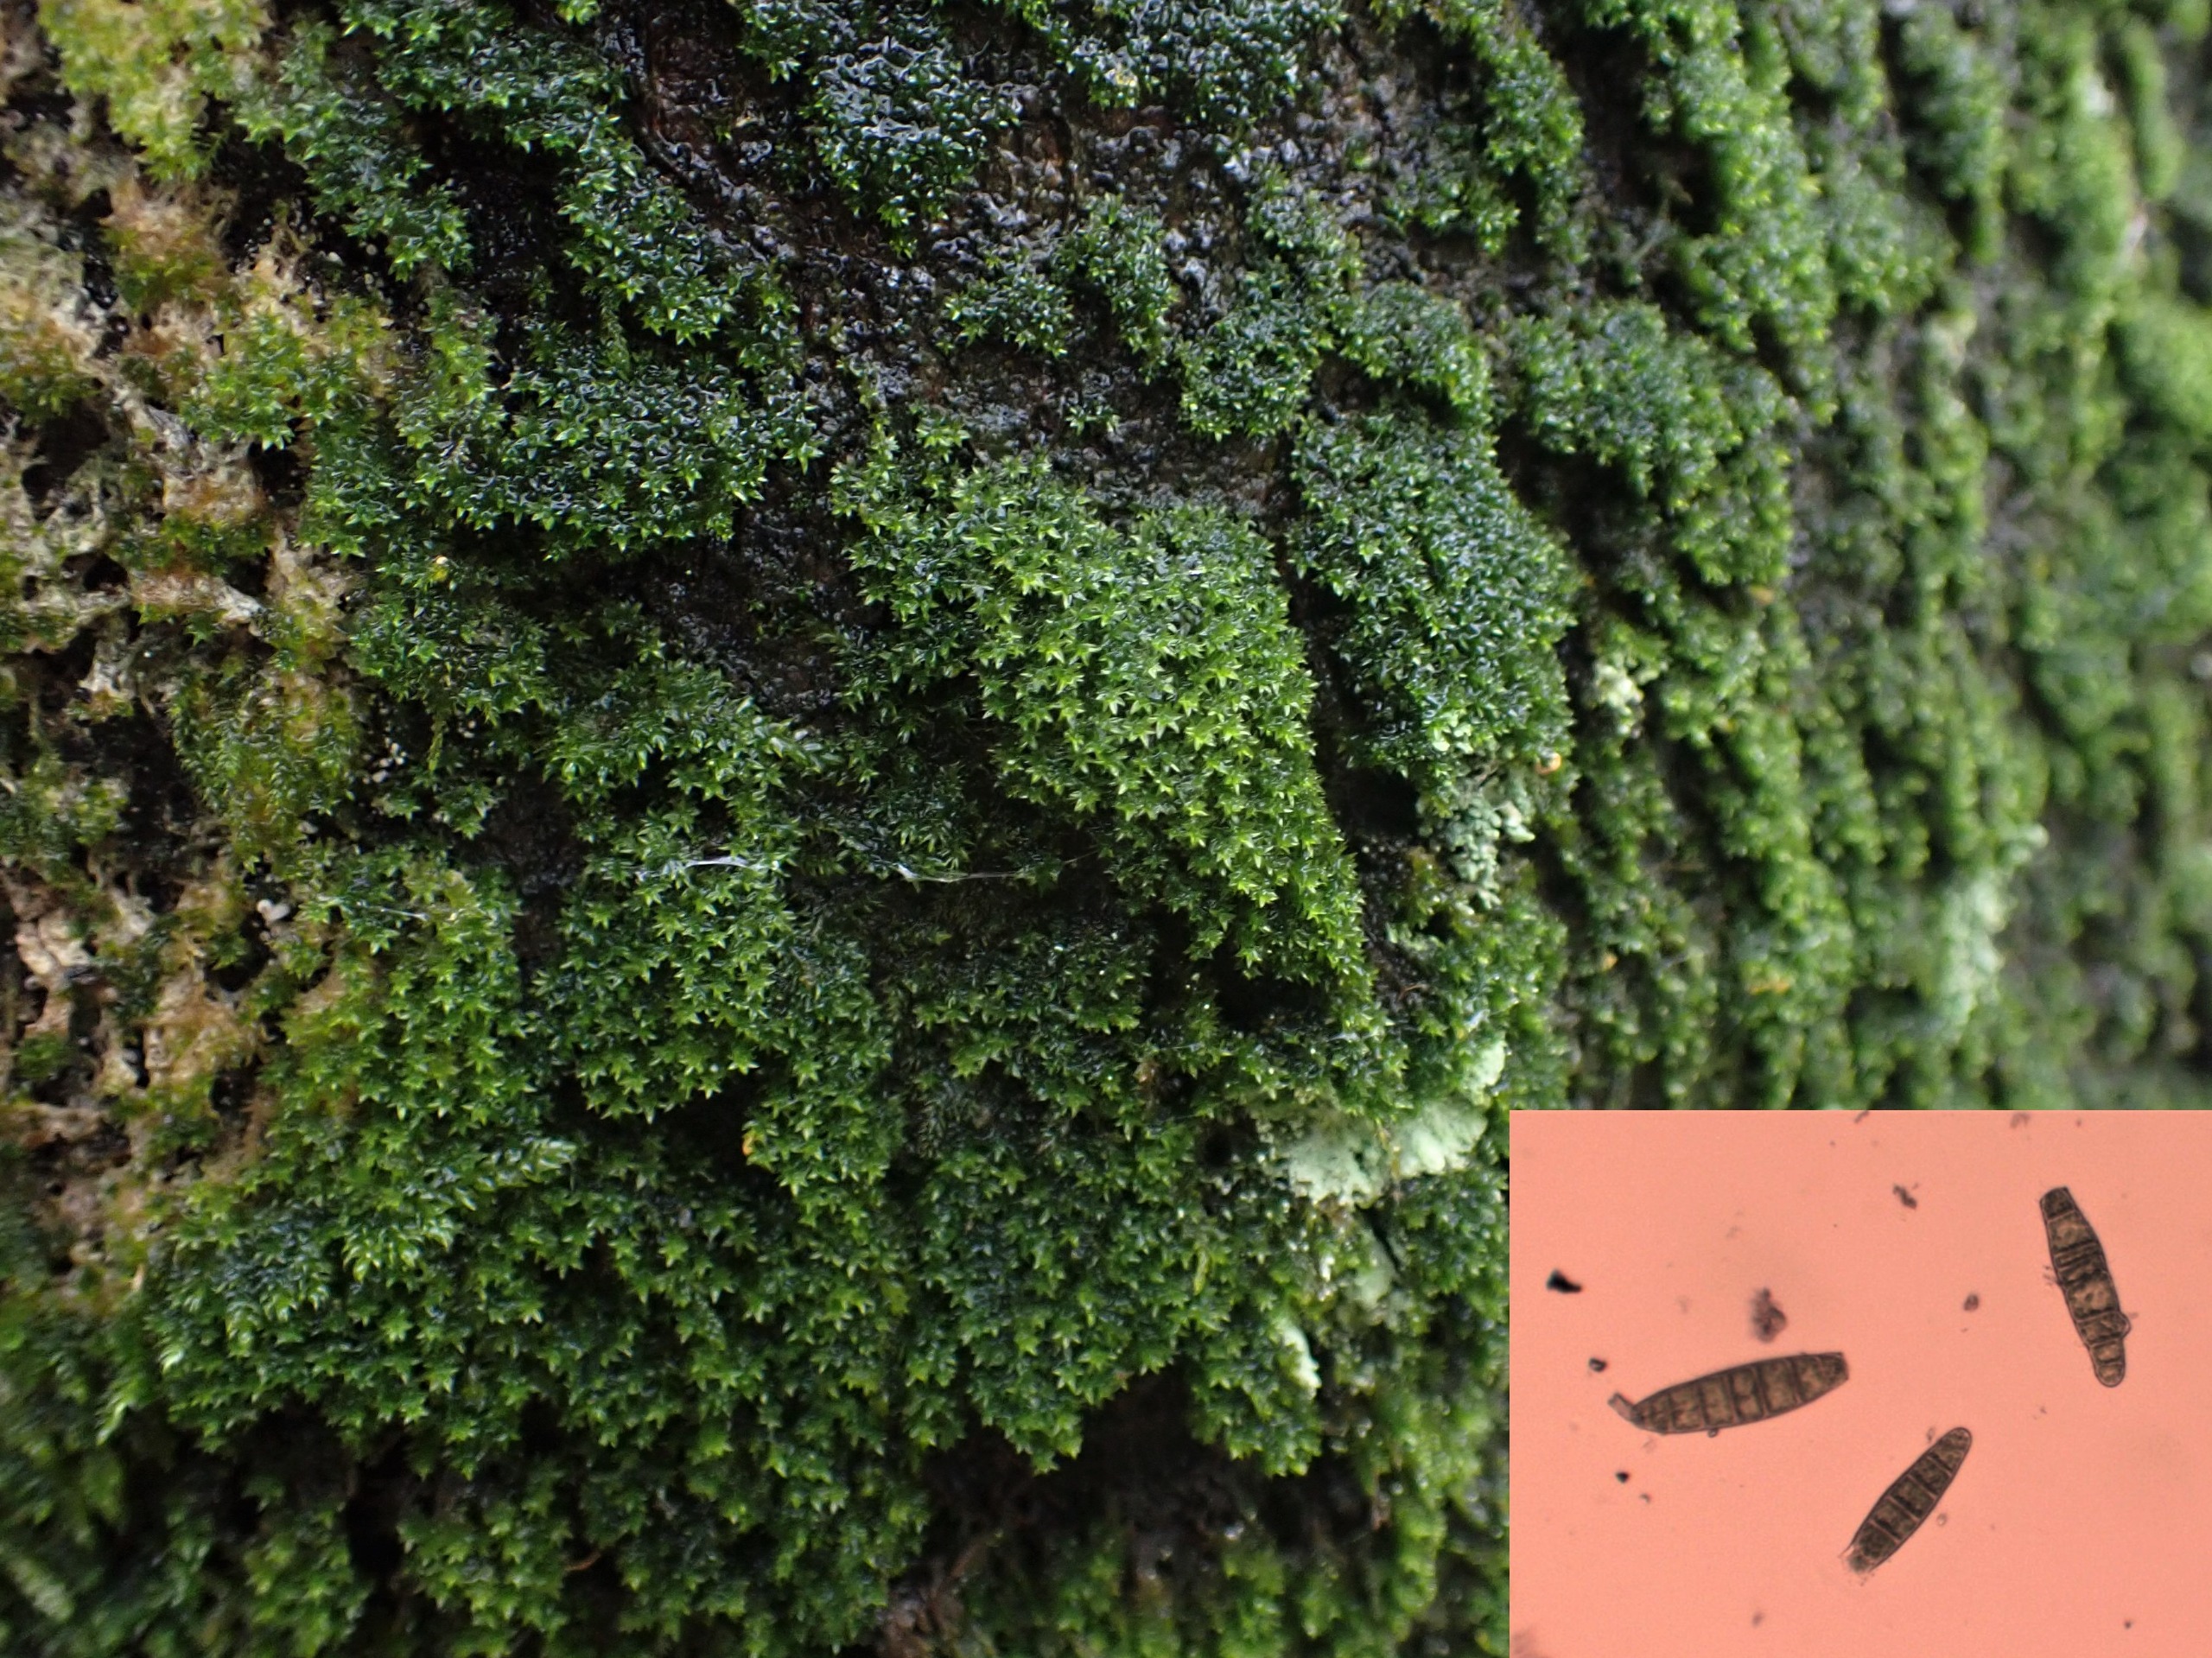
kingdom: Plantae
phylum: Bryophyta
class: Bryopsida
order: Orthotrichales
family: Orthotrichaceae
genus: Zygodon
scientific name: Zygodon conoideus
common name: Tand-køllemos
